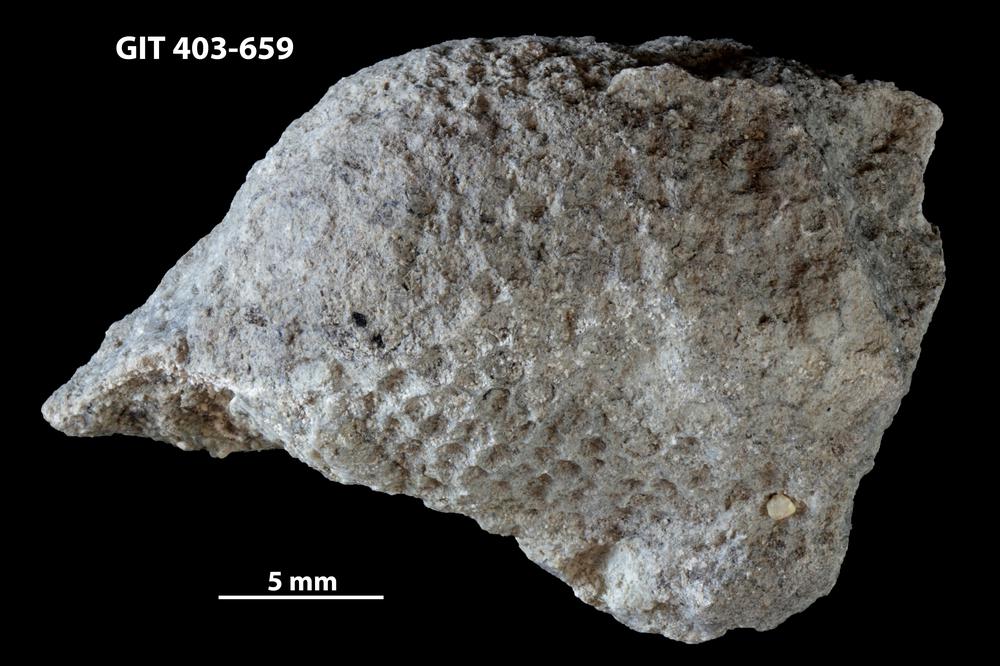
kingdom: Animalia
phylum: Cnidaria
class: Anthozoa
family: Favositidae
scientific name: Favositidae
